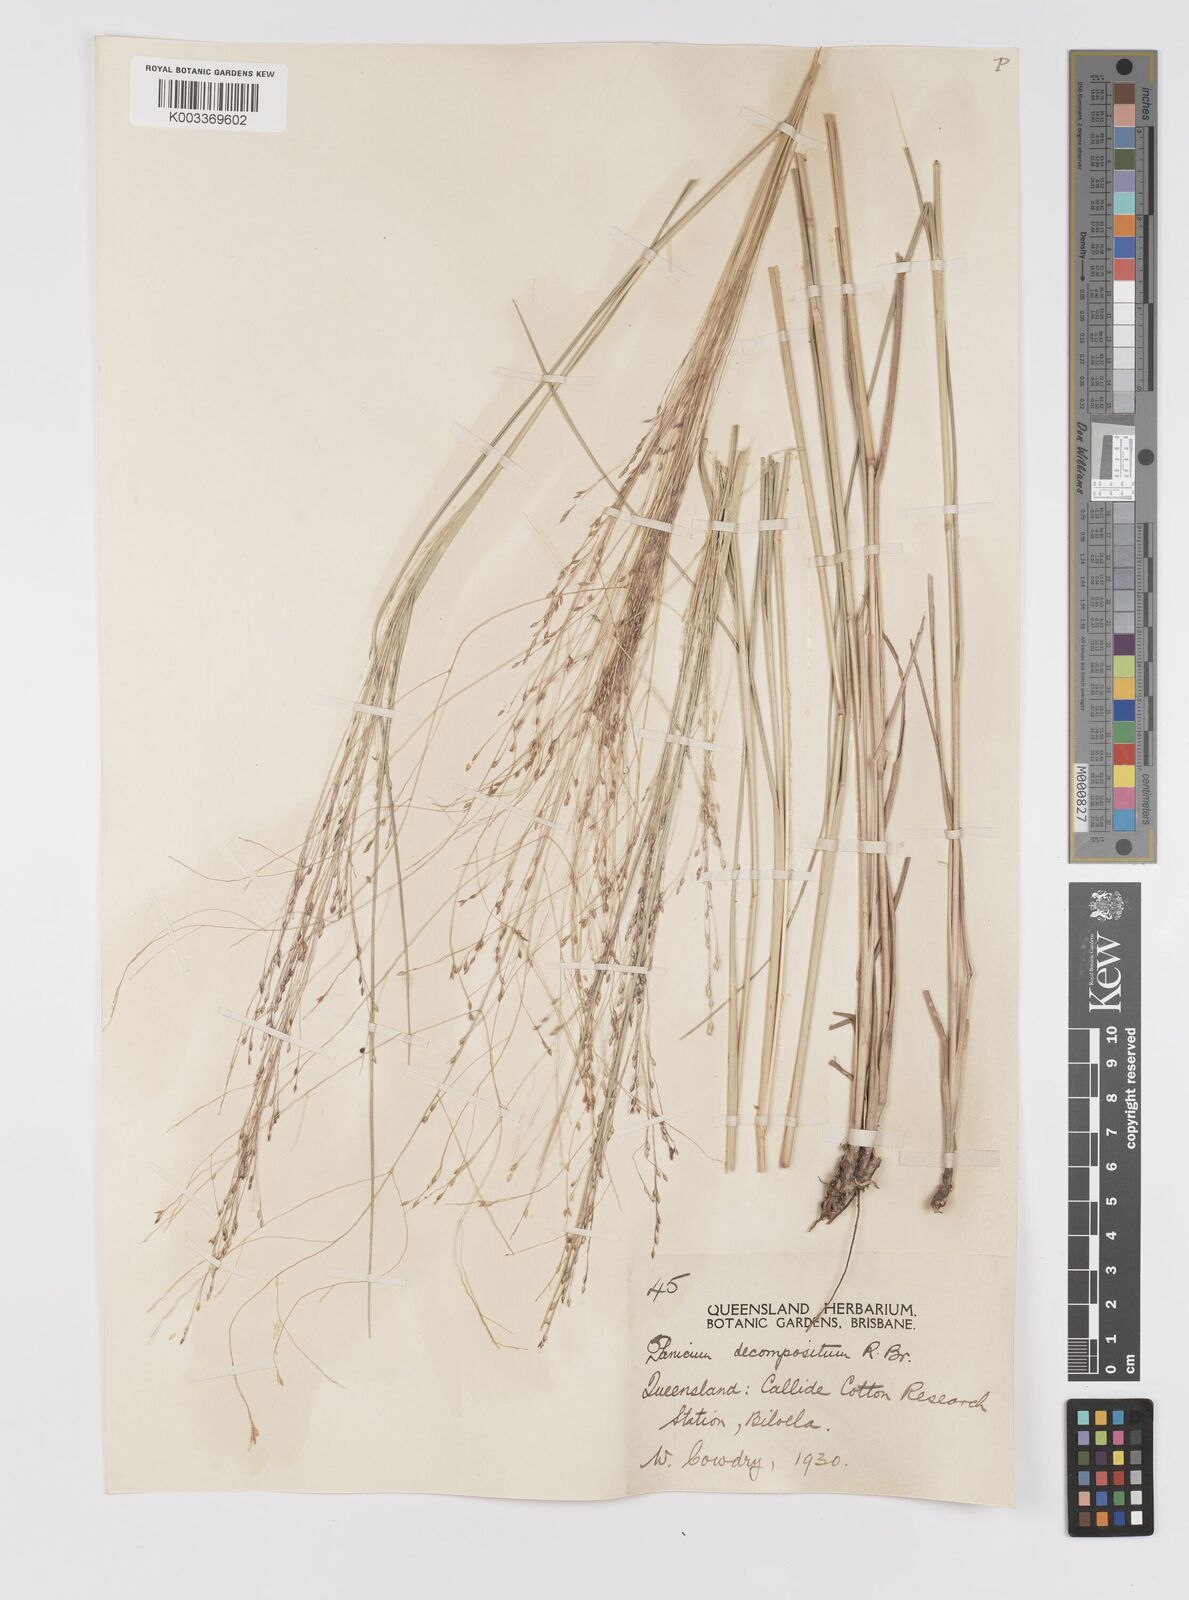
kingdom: Plantae
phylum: Tracheophyta
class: Liliopsida
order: Poales
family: Poaceae
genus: Panicum
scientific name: Panicum decompositum
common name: Australian millet
